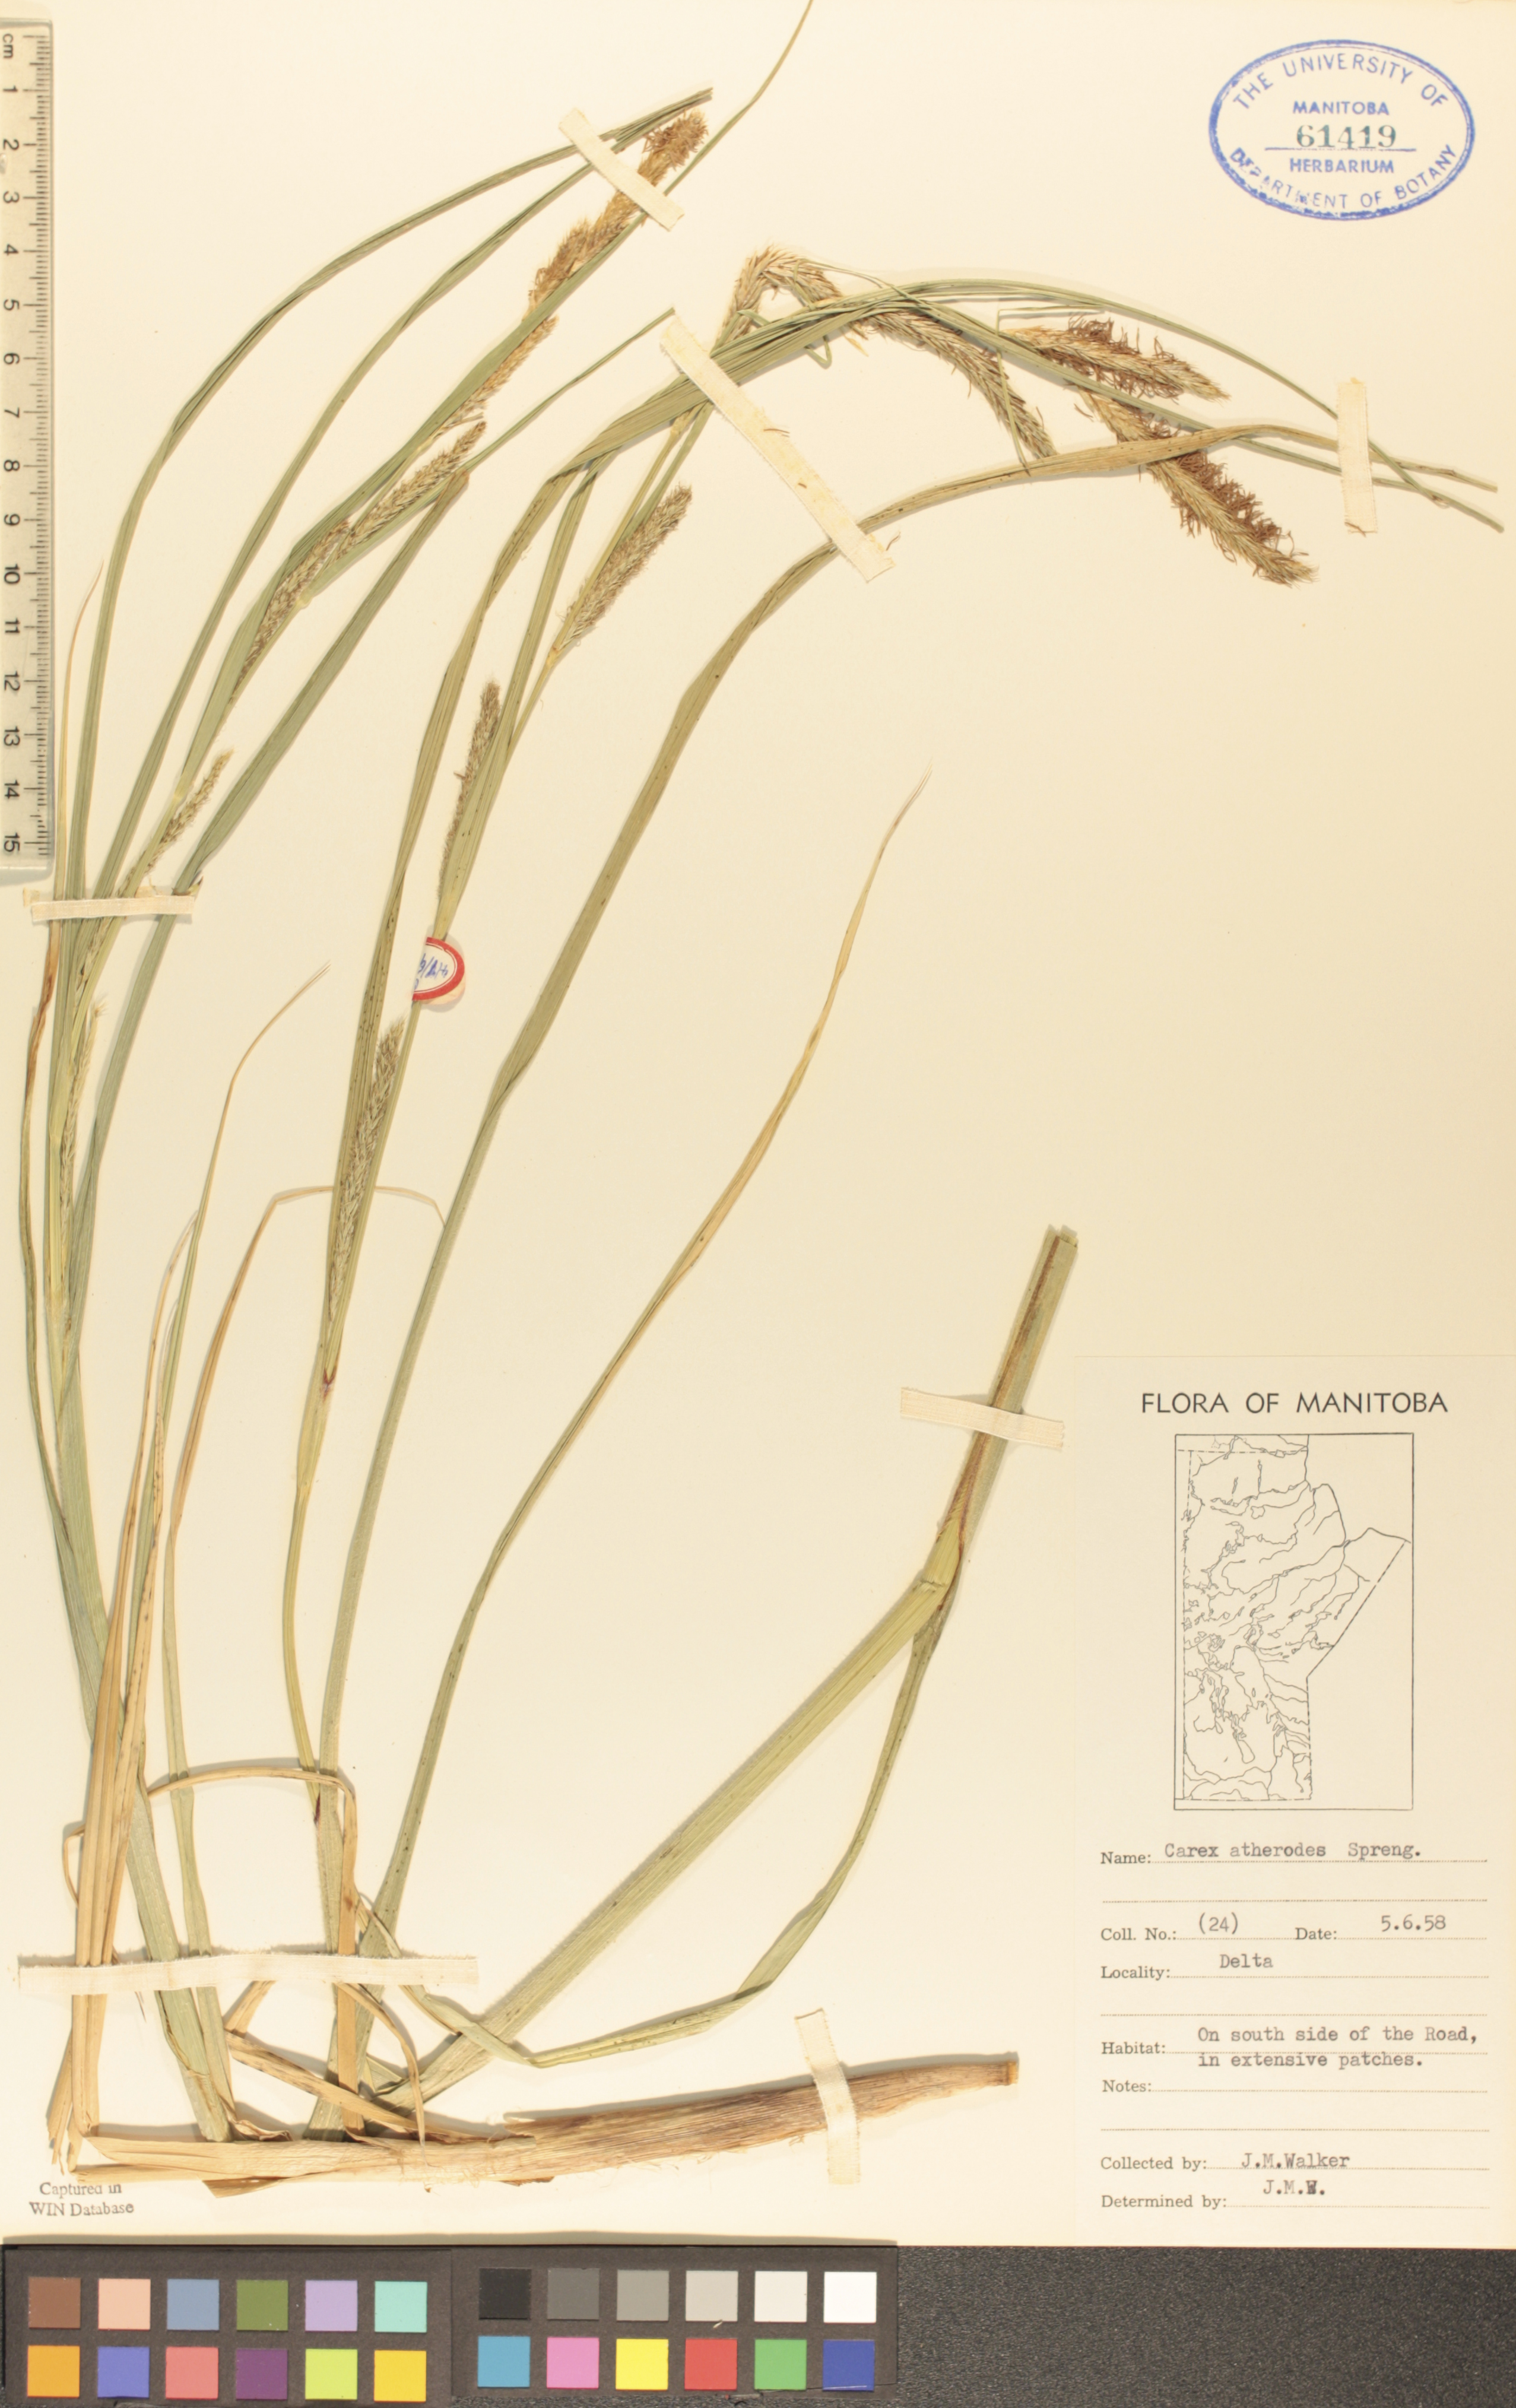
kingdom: Plantae
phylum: Tracheophyta
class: Liliopsida
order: Poales
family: Cyperaceae
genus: Carex
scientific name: Carex atherodes
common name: Wheat sedge
